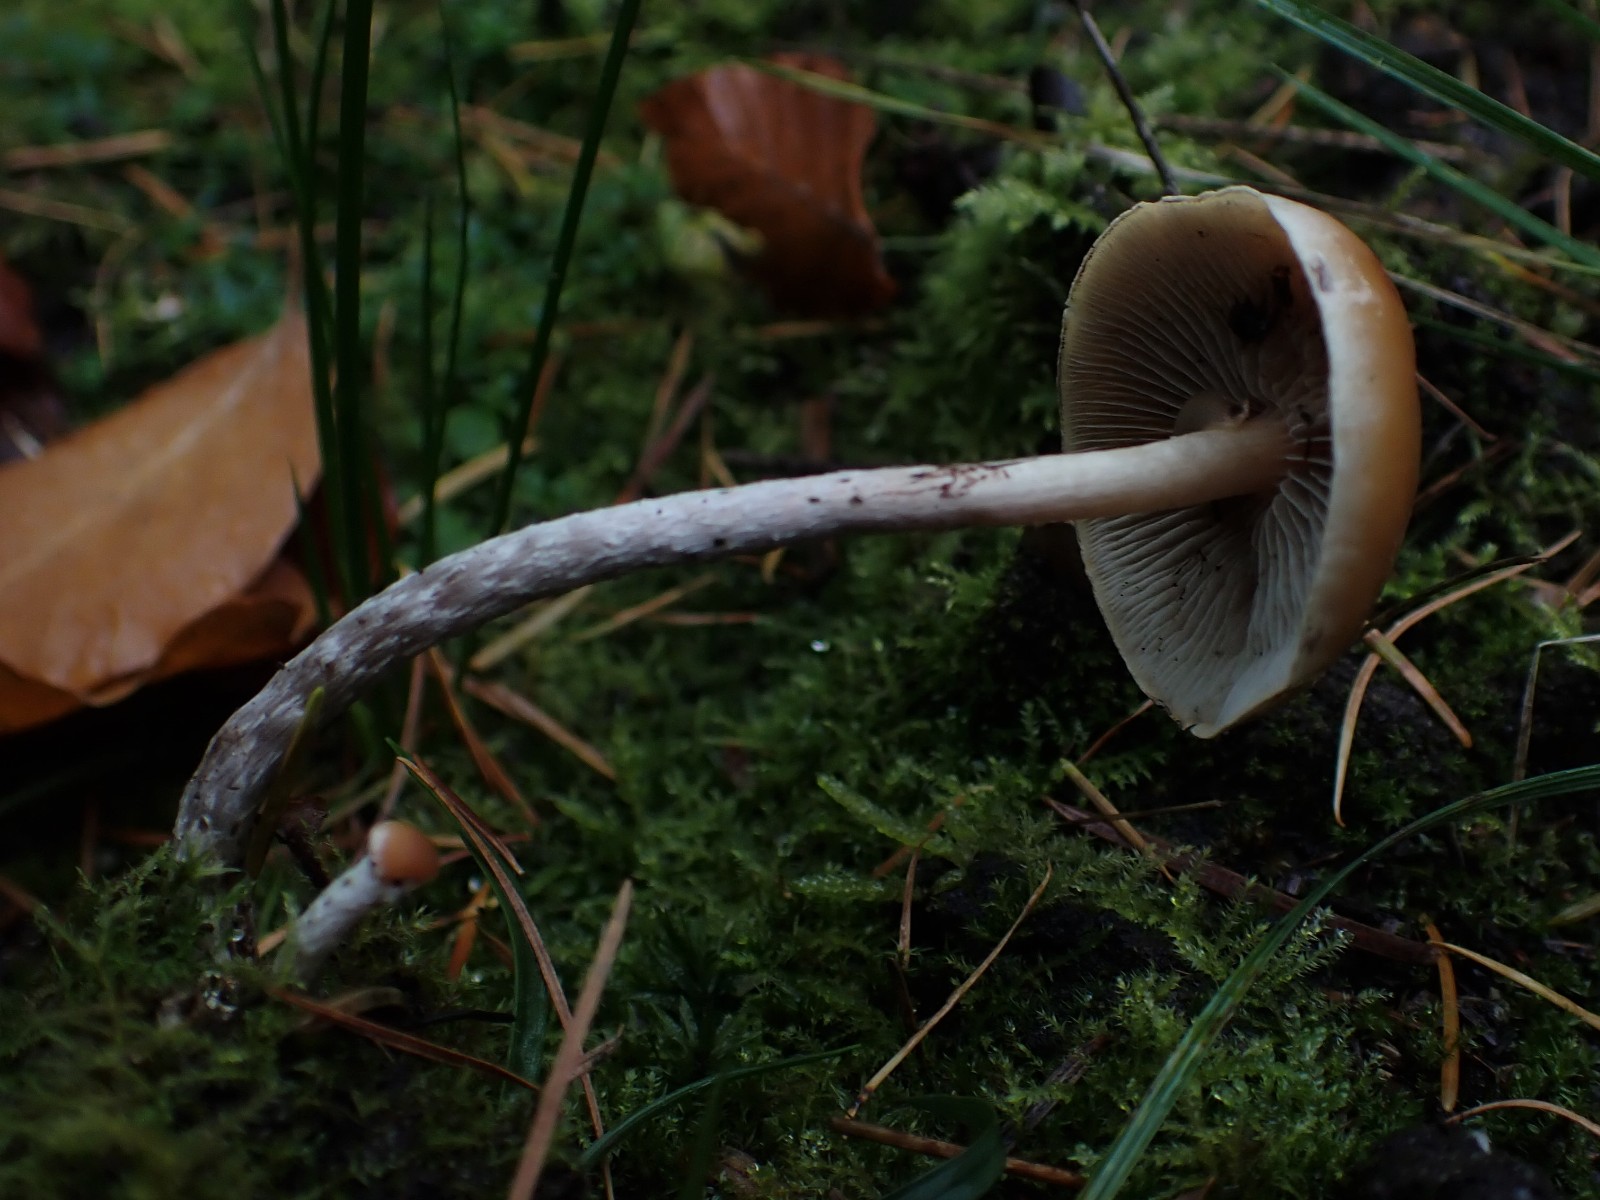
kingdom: Fungi
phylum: Basidiomycota
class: Agaricomycetes
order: Agaricales
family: Strophariaceae
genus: Hypholoma
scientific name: Hypholoma marginatum
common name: enlig svovlhat
